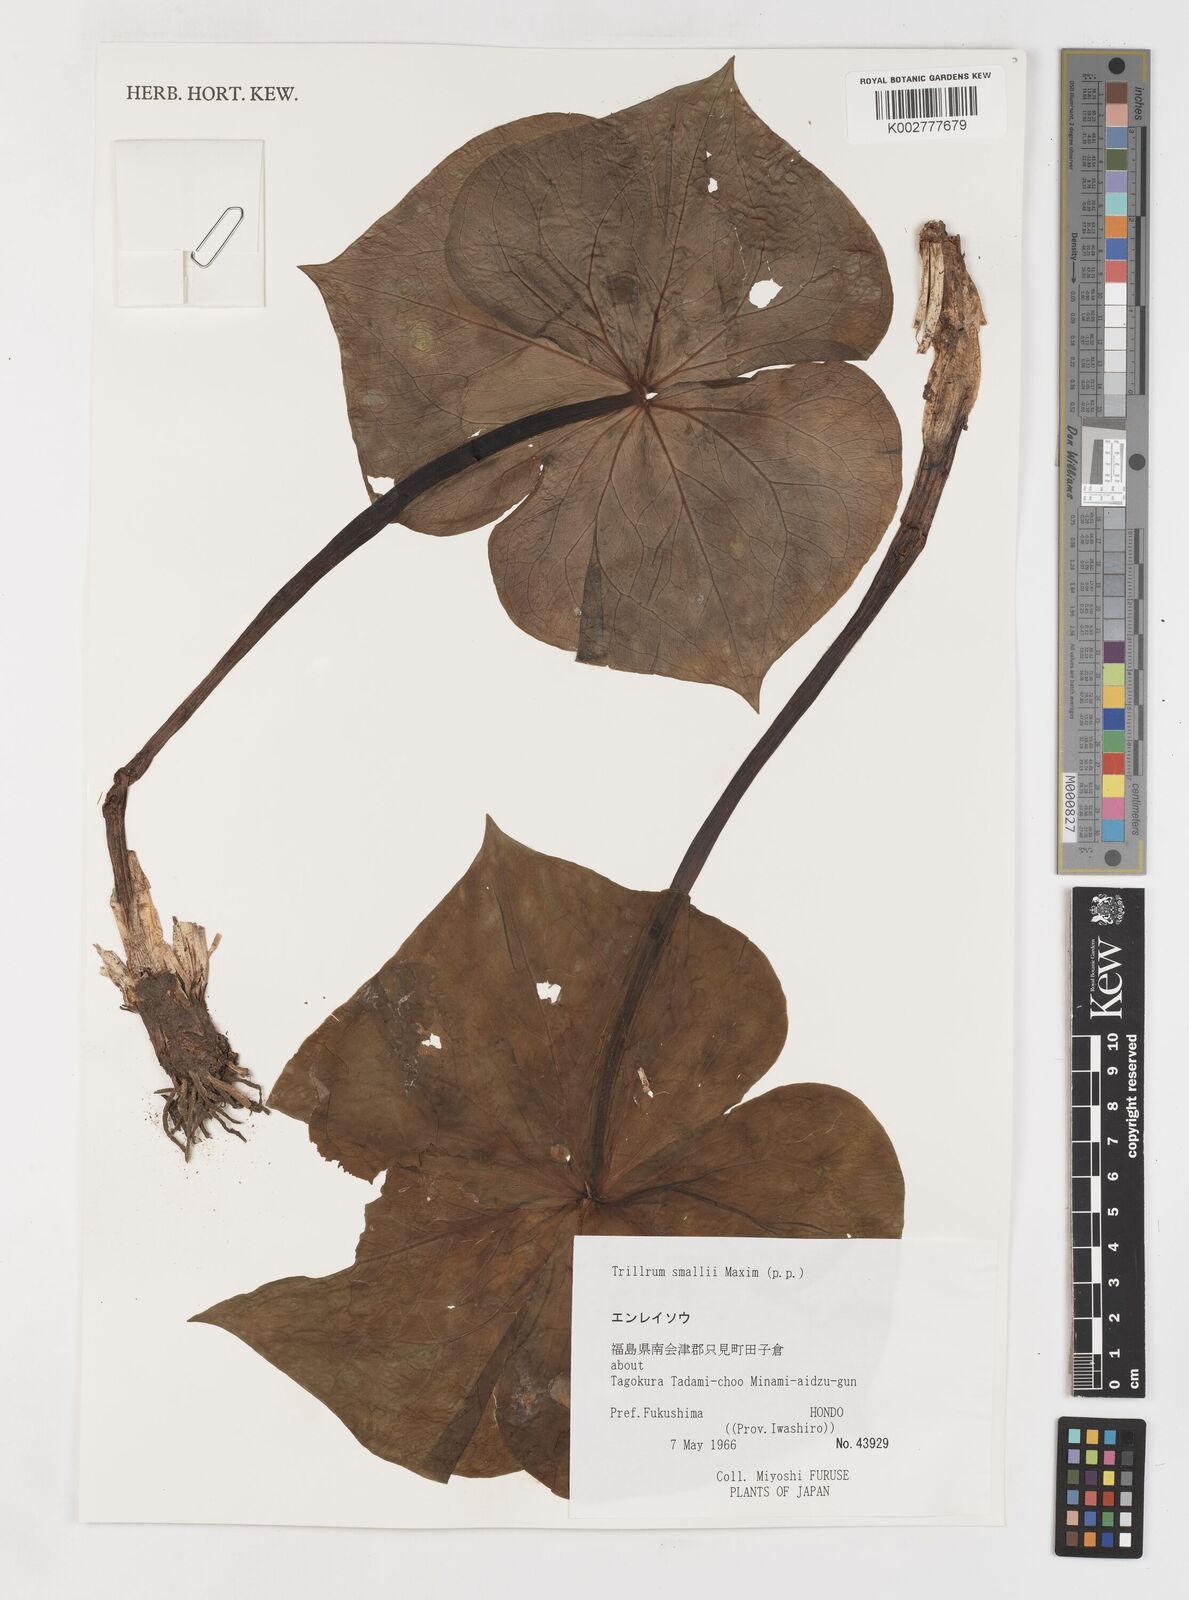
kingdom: Plantae
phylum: Tracheophyta
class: Liliopsida
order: Liliales
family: Melanthiaceae
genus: Trillium
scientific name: Trillium smallii
